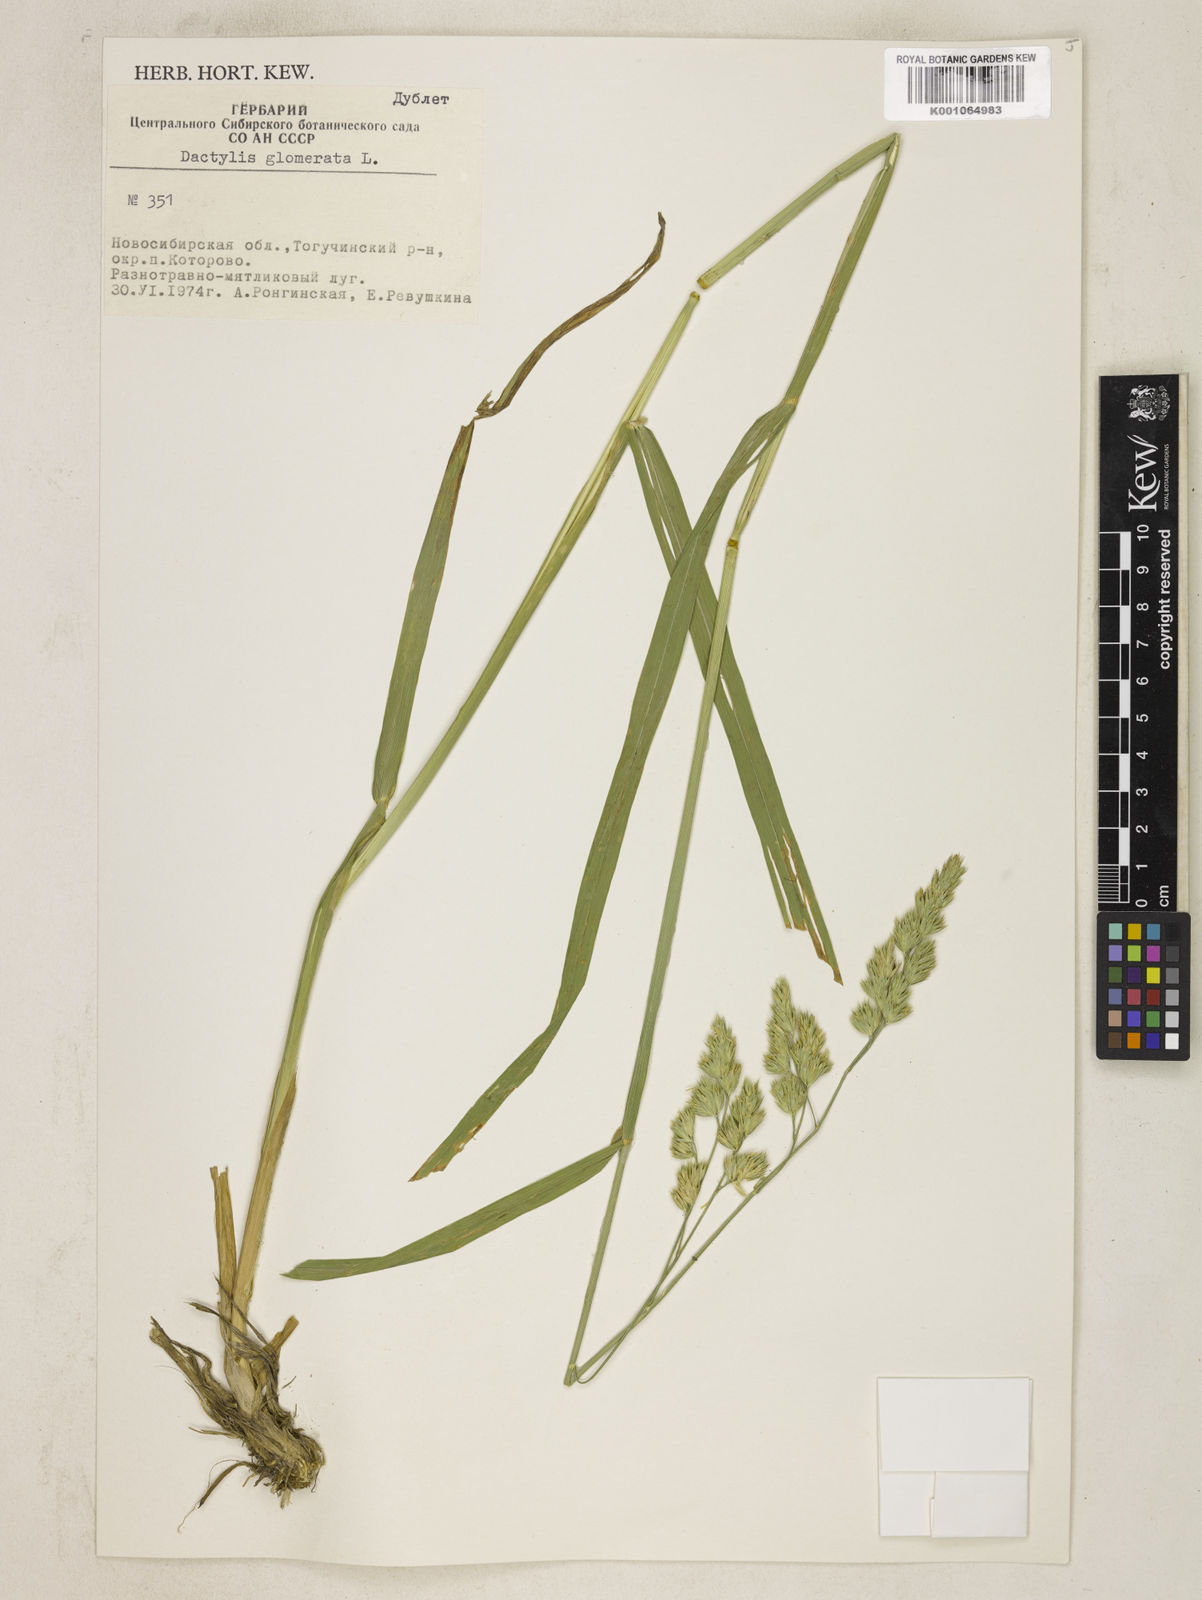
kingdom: Plantae
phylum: Tracheophyta
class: Liliopsida
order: Poales
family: Poaceae
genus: Dactylis
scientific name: Dactylis glomerata
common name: Orchardgrass
